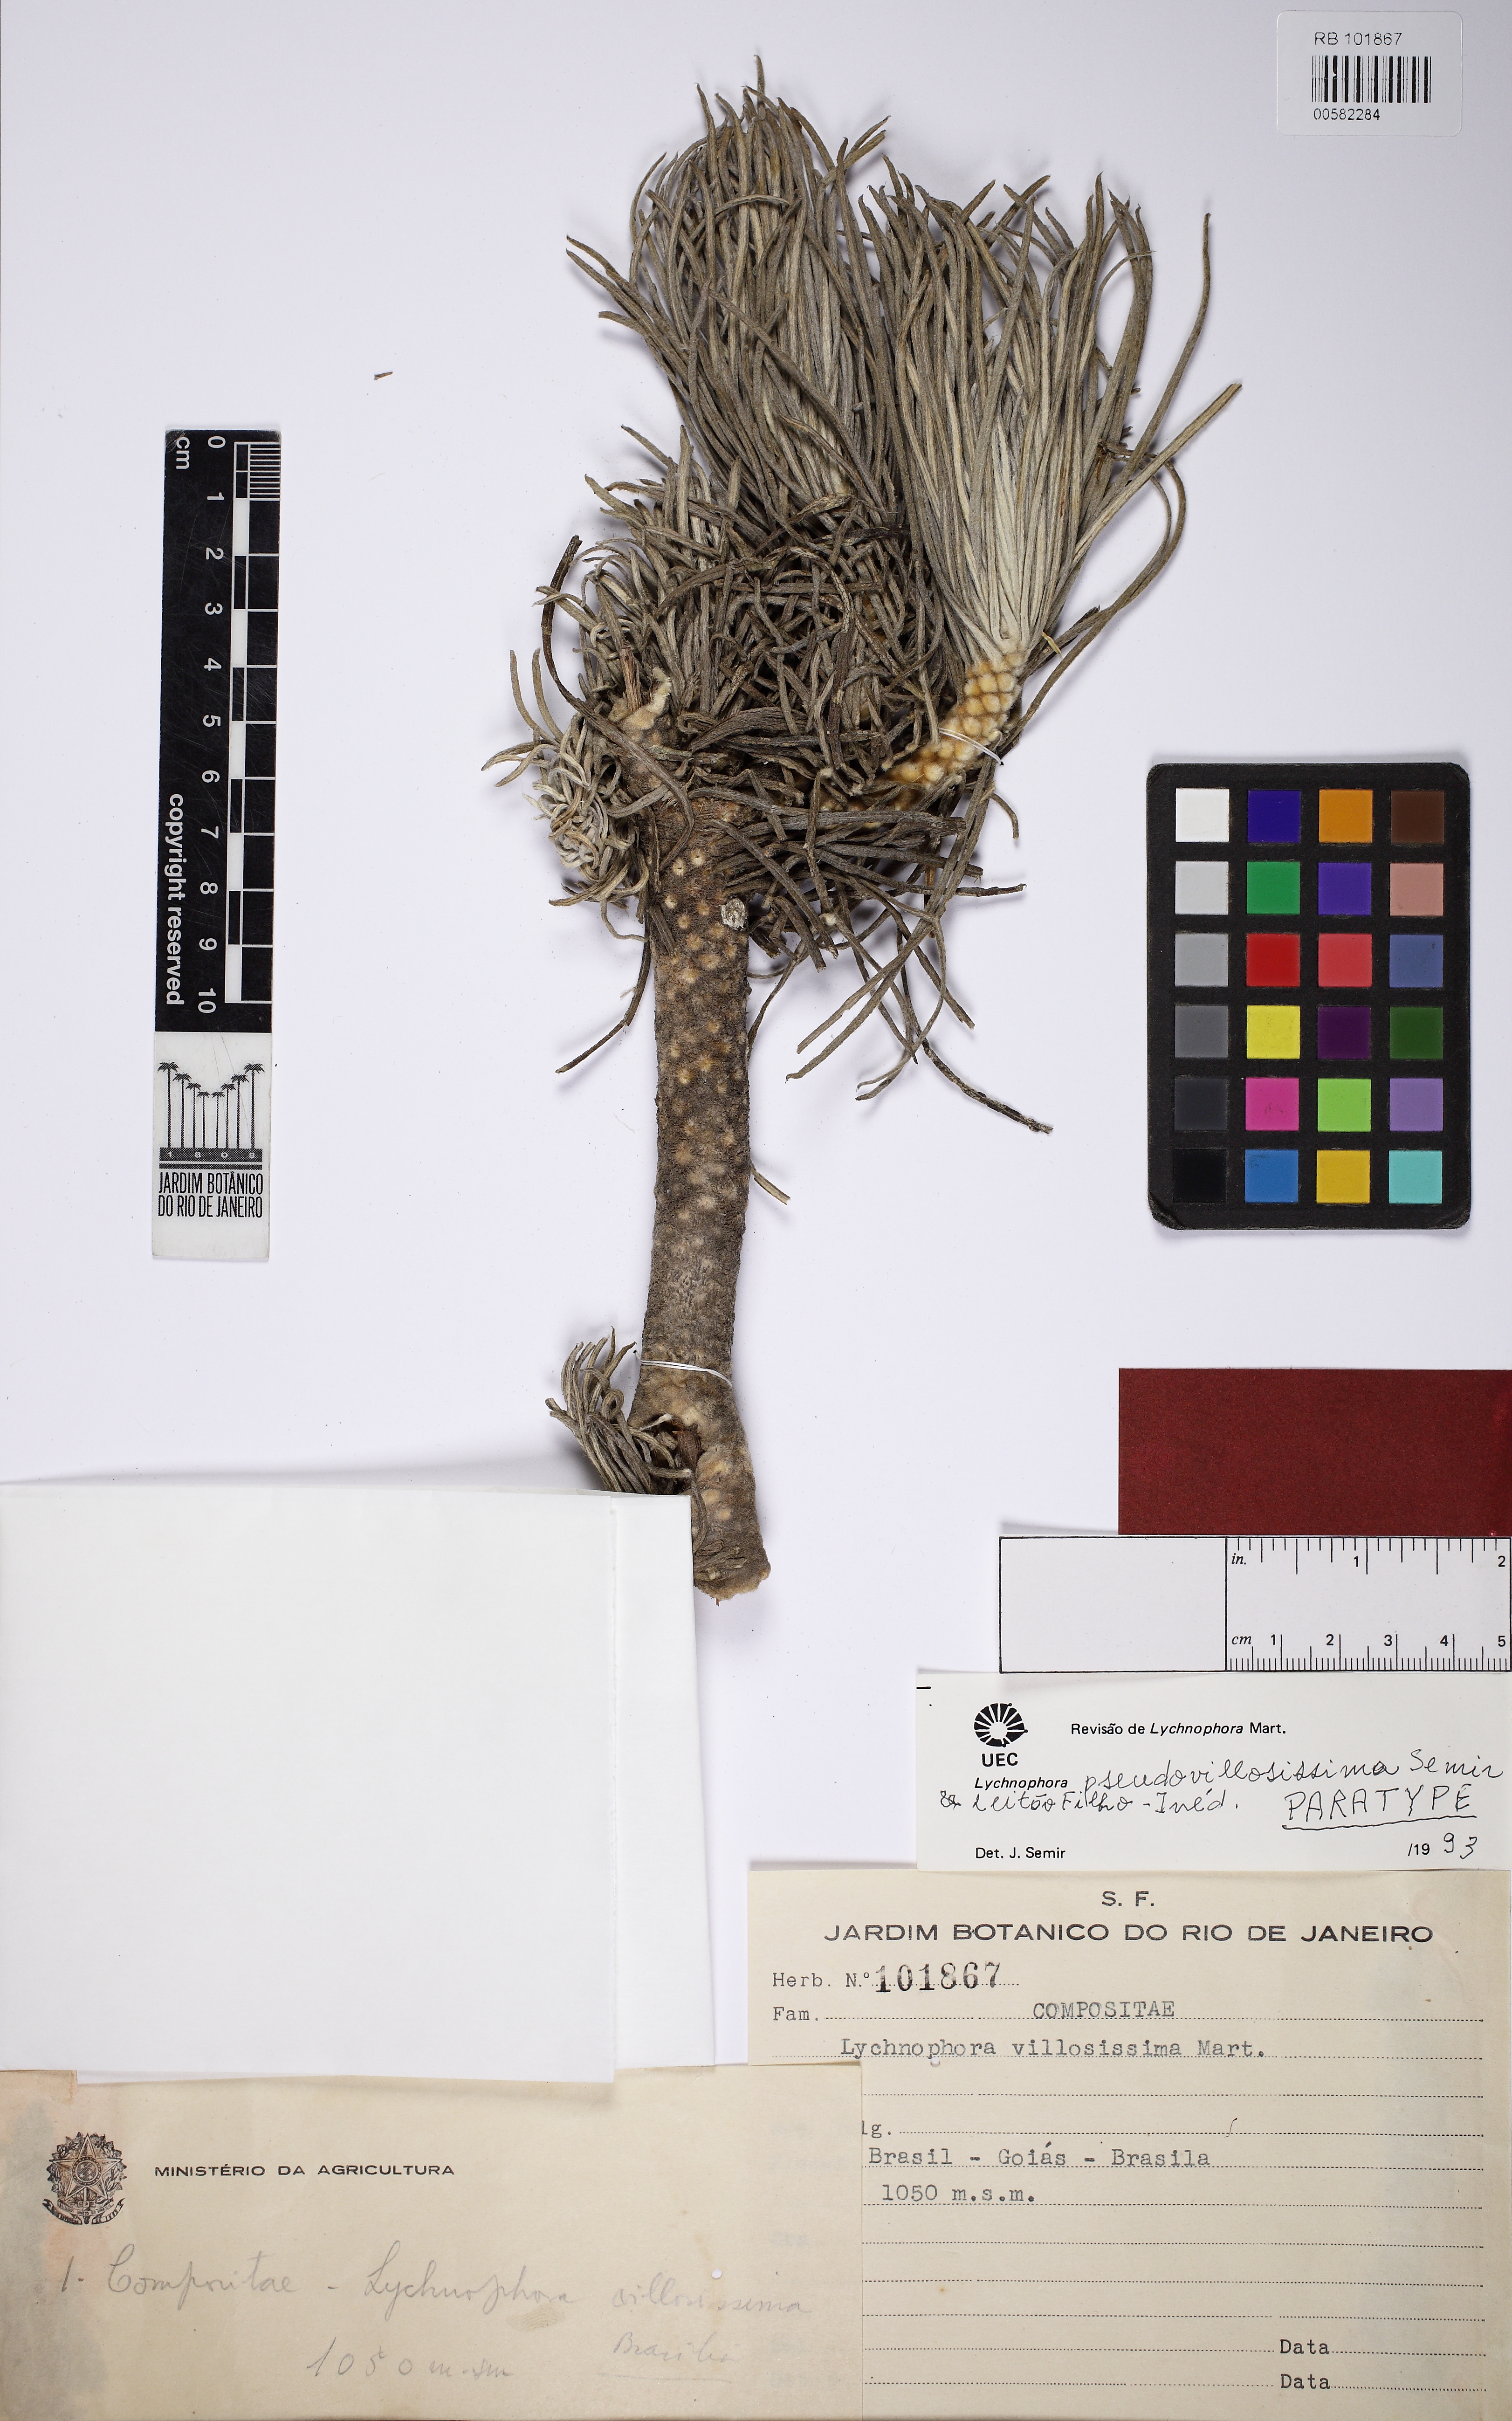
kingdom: Plantae
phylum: Tracheophyta
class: Magnoliopsida
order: Asterales
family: Asteraceae
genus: Lychnophora
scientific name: Lychnophora pseudovillosissima
